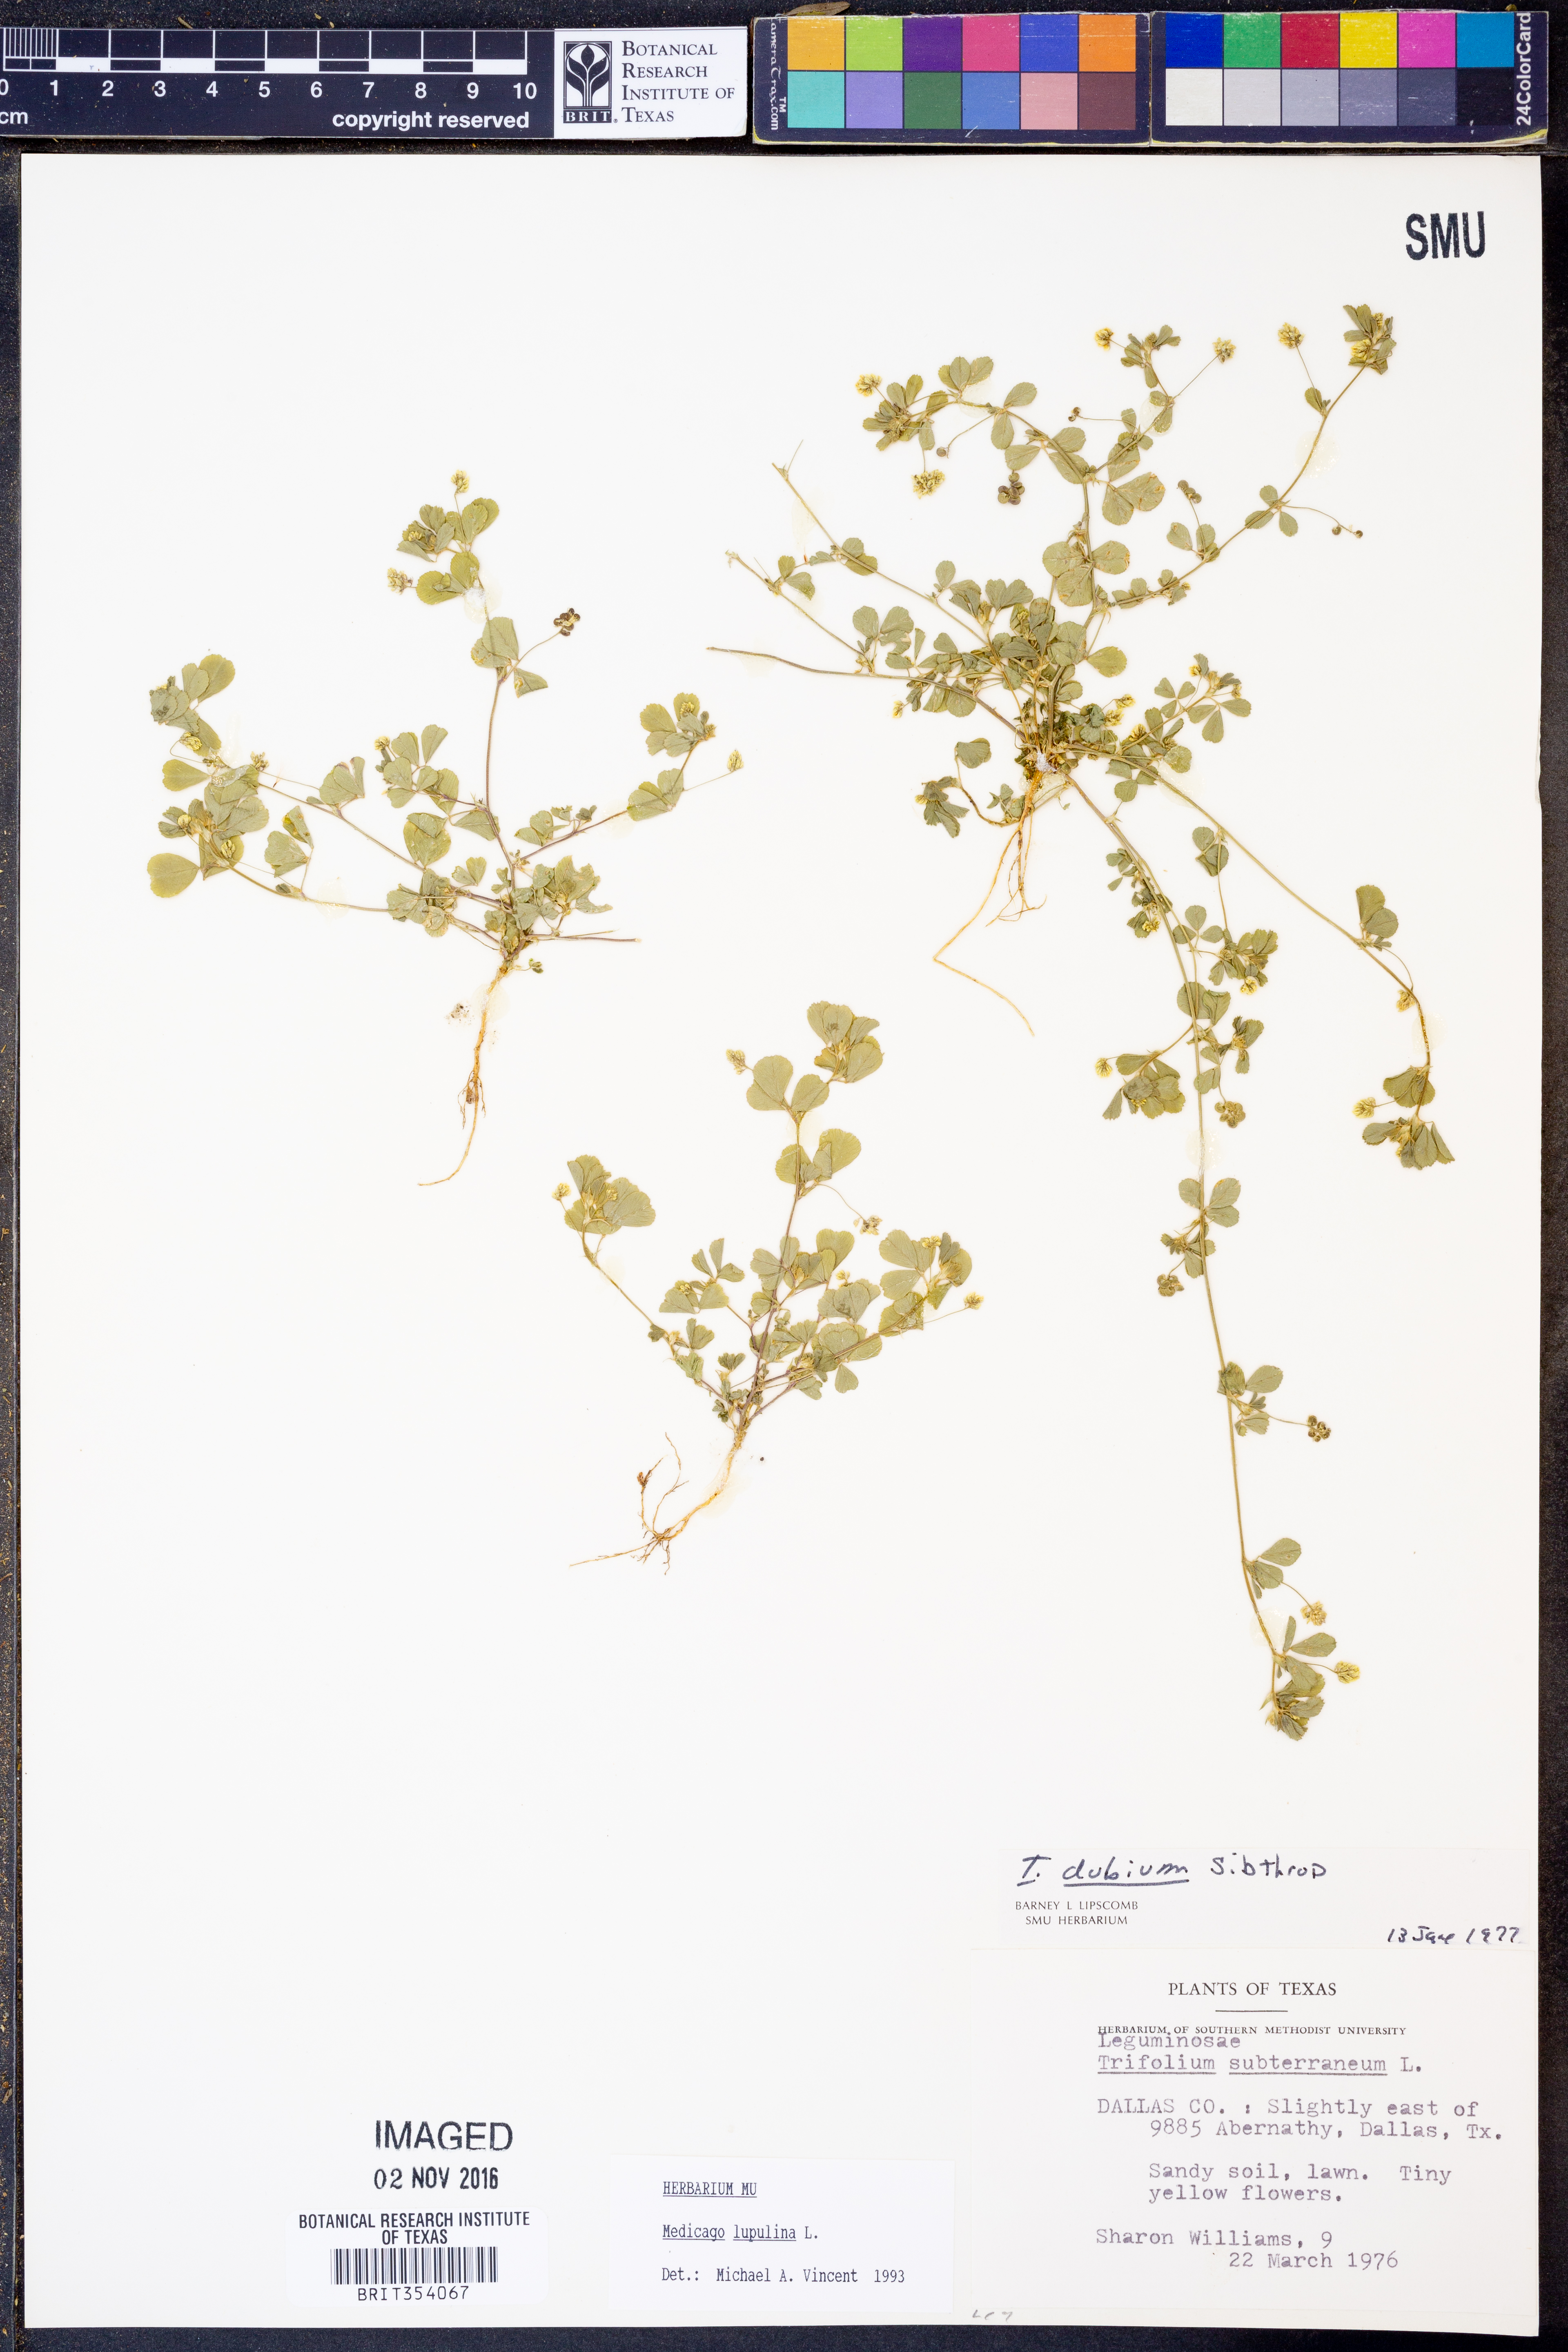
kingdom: Plantae
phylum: Tracheophyta
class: Magnoliopsida
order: Fabales
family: Fabaceae
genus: Medicago
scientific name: Medicago lupulina
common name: Black medick
